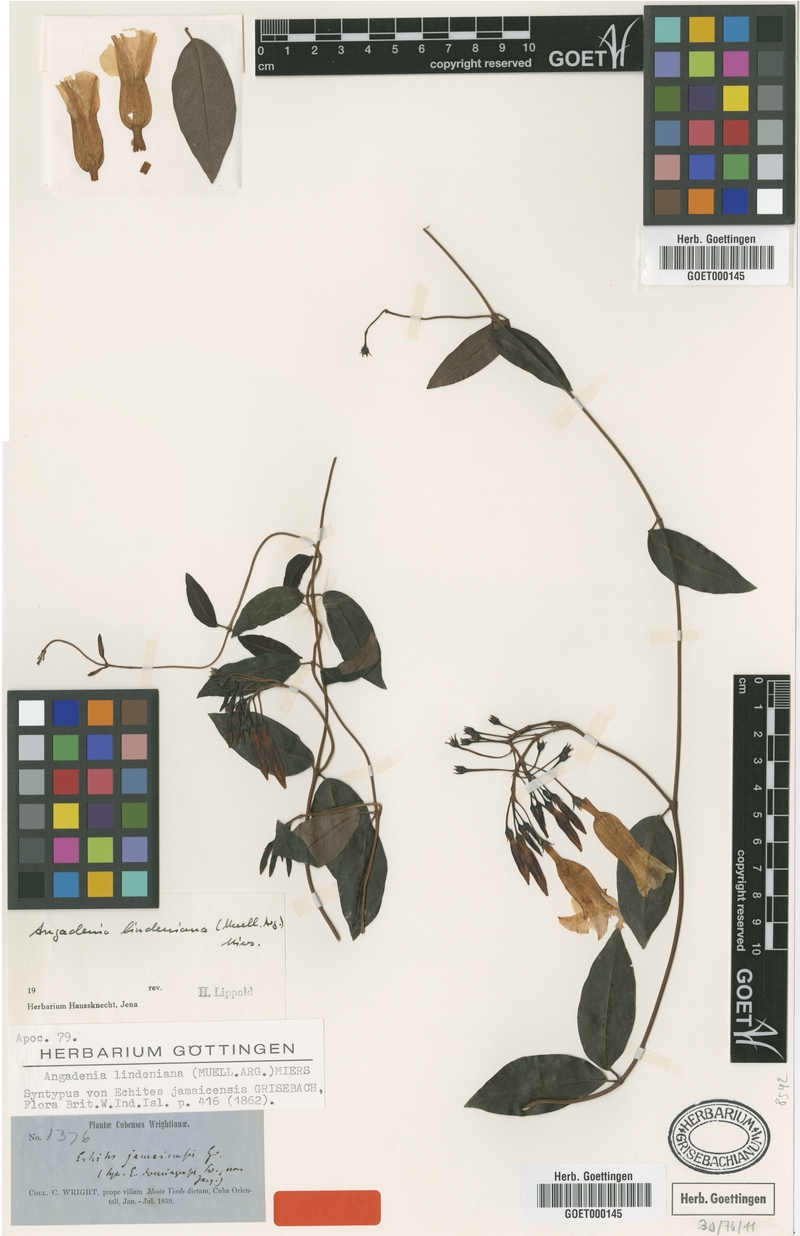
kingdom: Plantae
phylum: Tracheophyta
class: Magnoliopsida
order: Gentianales
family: Apocynaceae
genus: Angadenia
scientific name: Angadenia lindeniana
